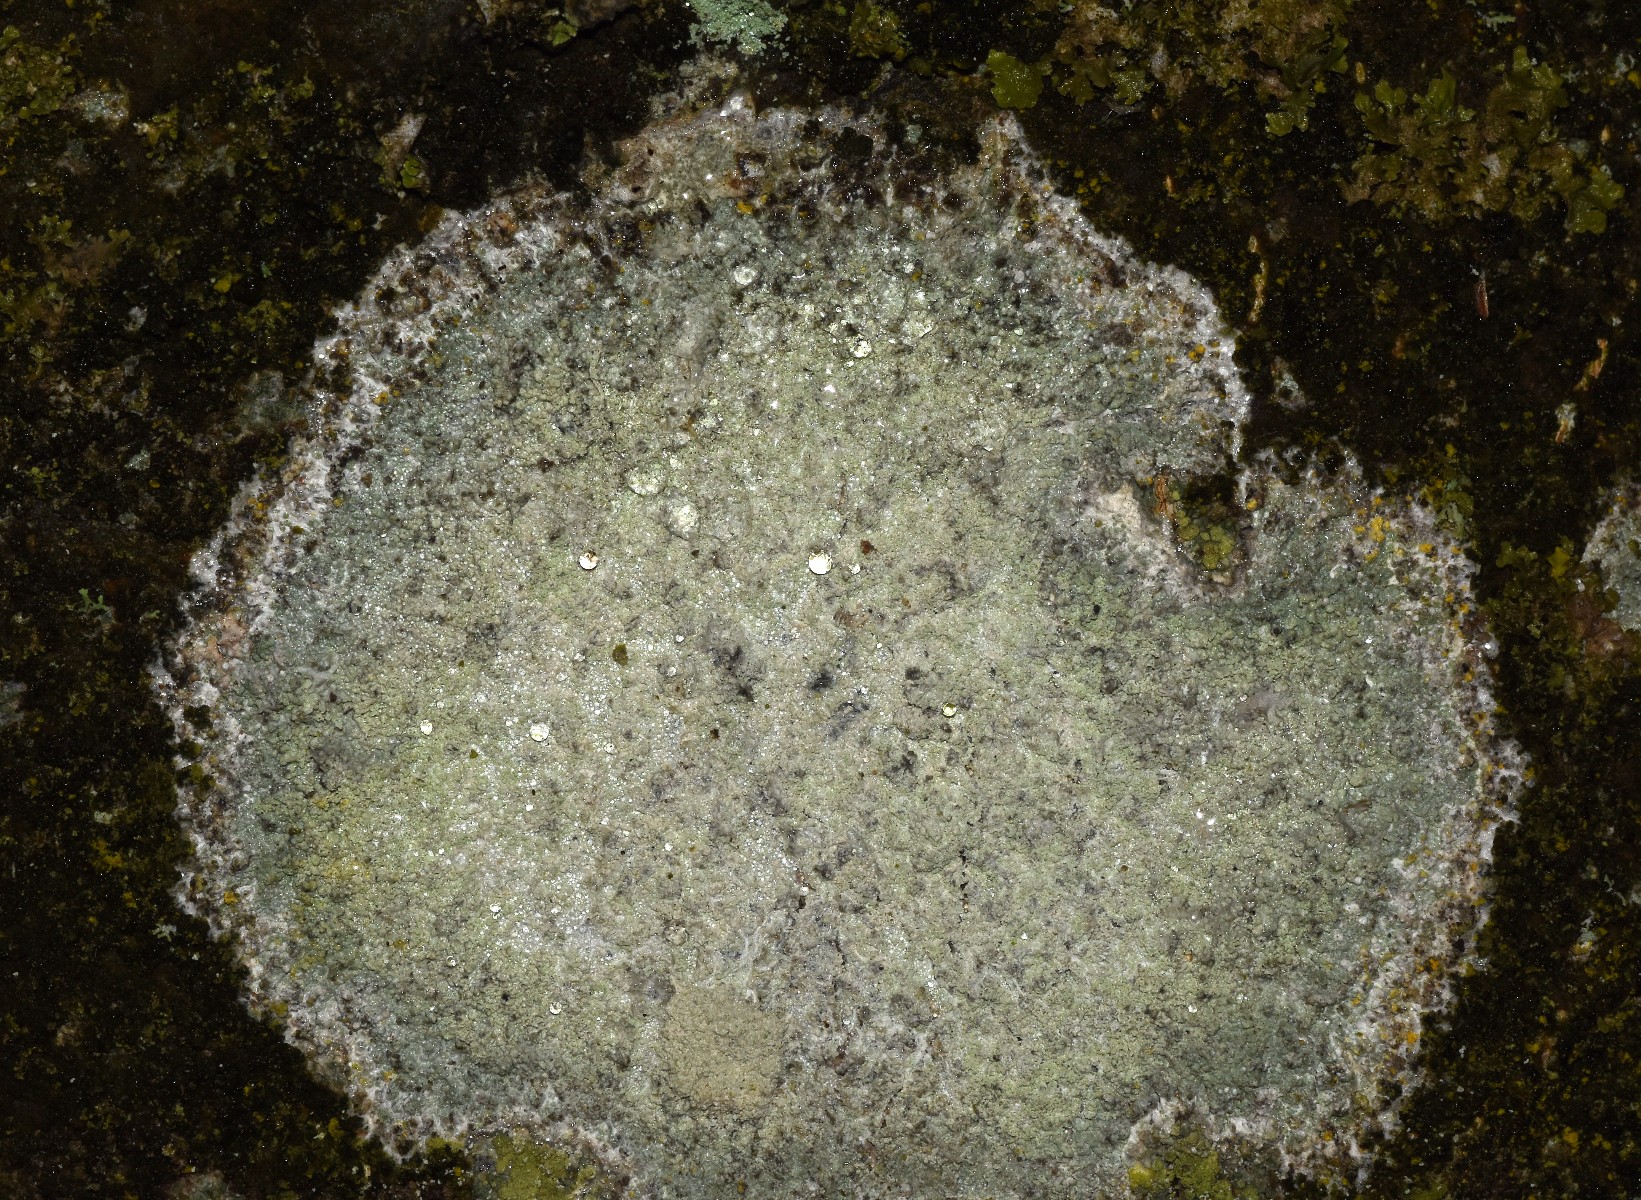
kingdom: Fungi
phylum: Ascomycota
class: Lecanoromycetes
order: Ostropales
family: Phlyctidaceae
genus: Phlyctis
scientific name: Phlyctis argena
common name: almindelig sølvlav
